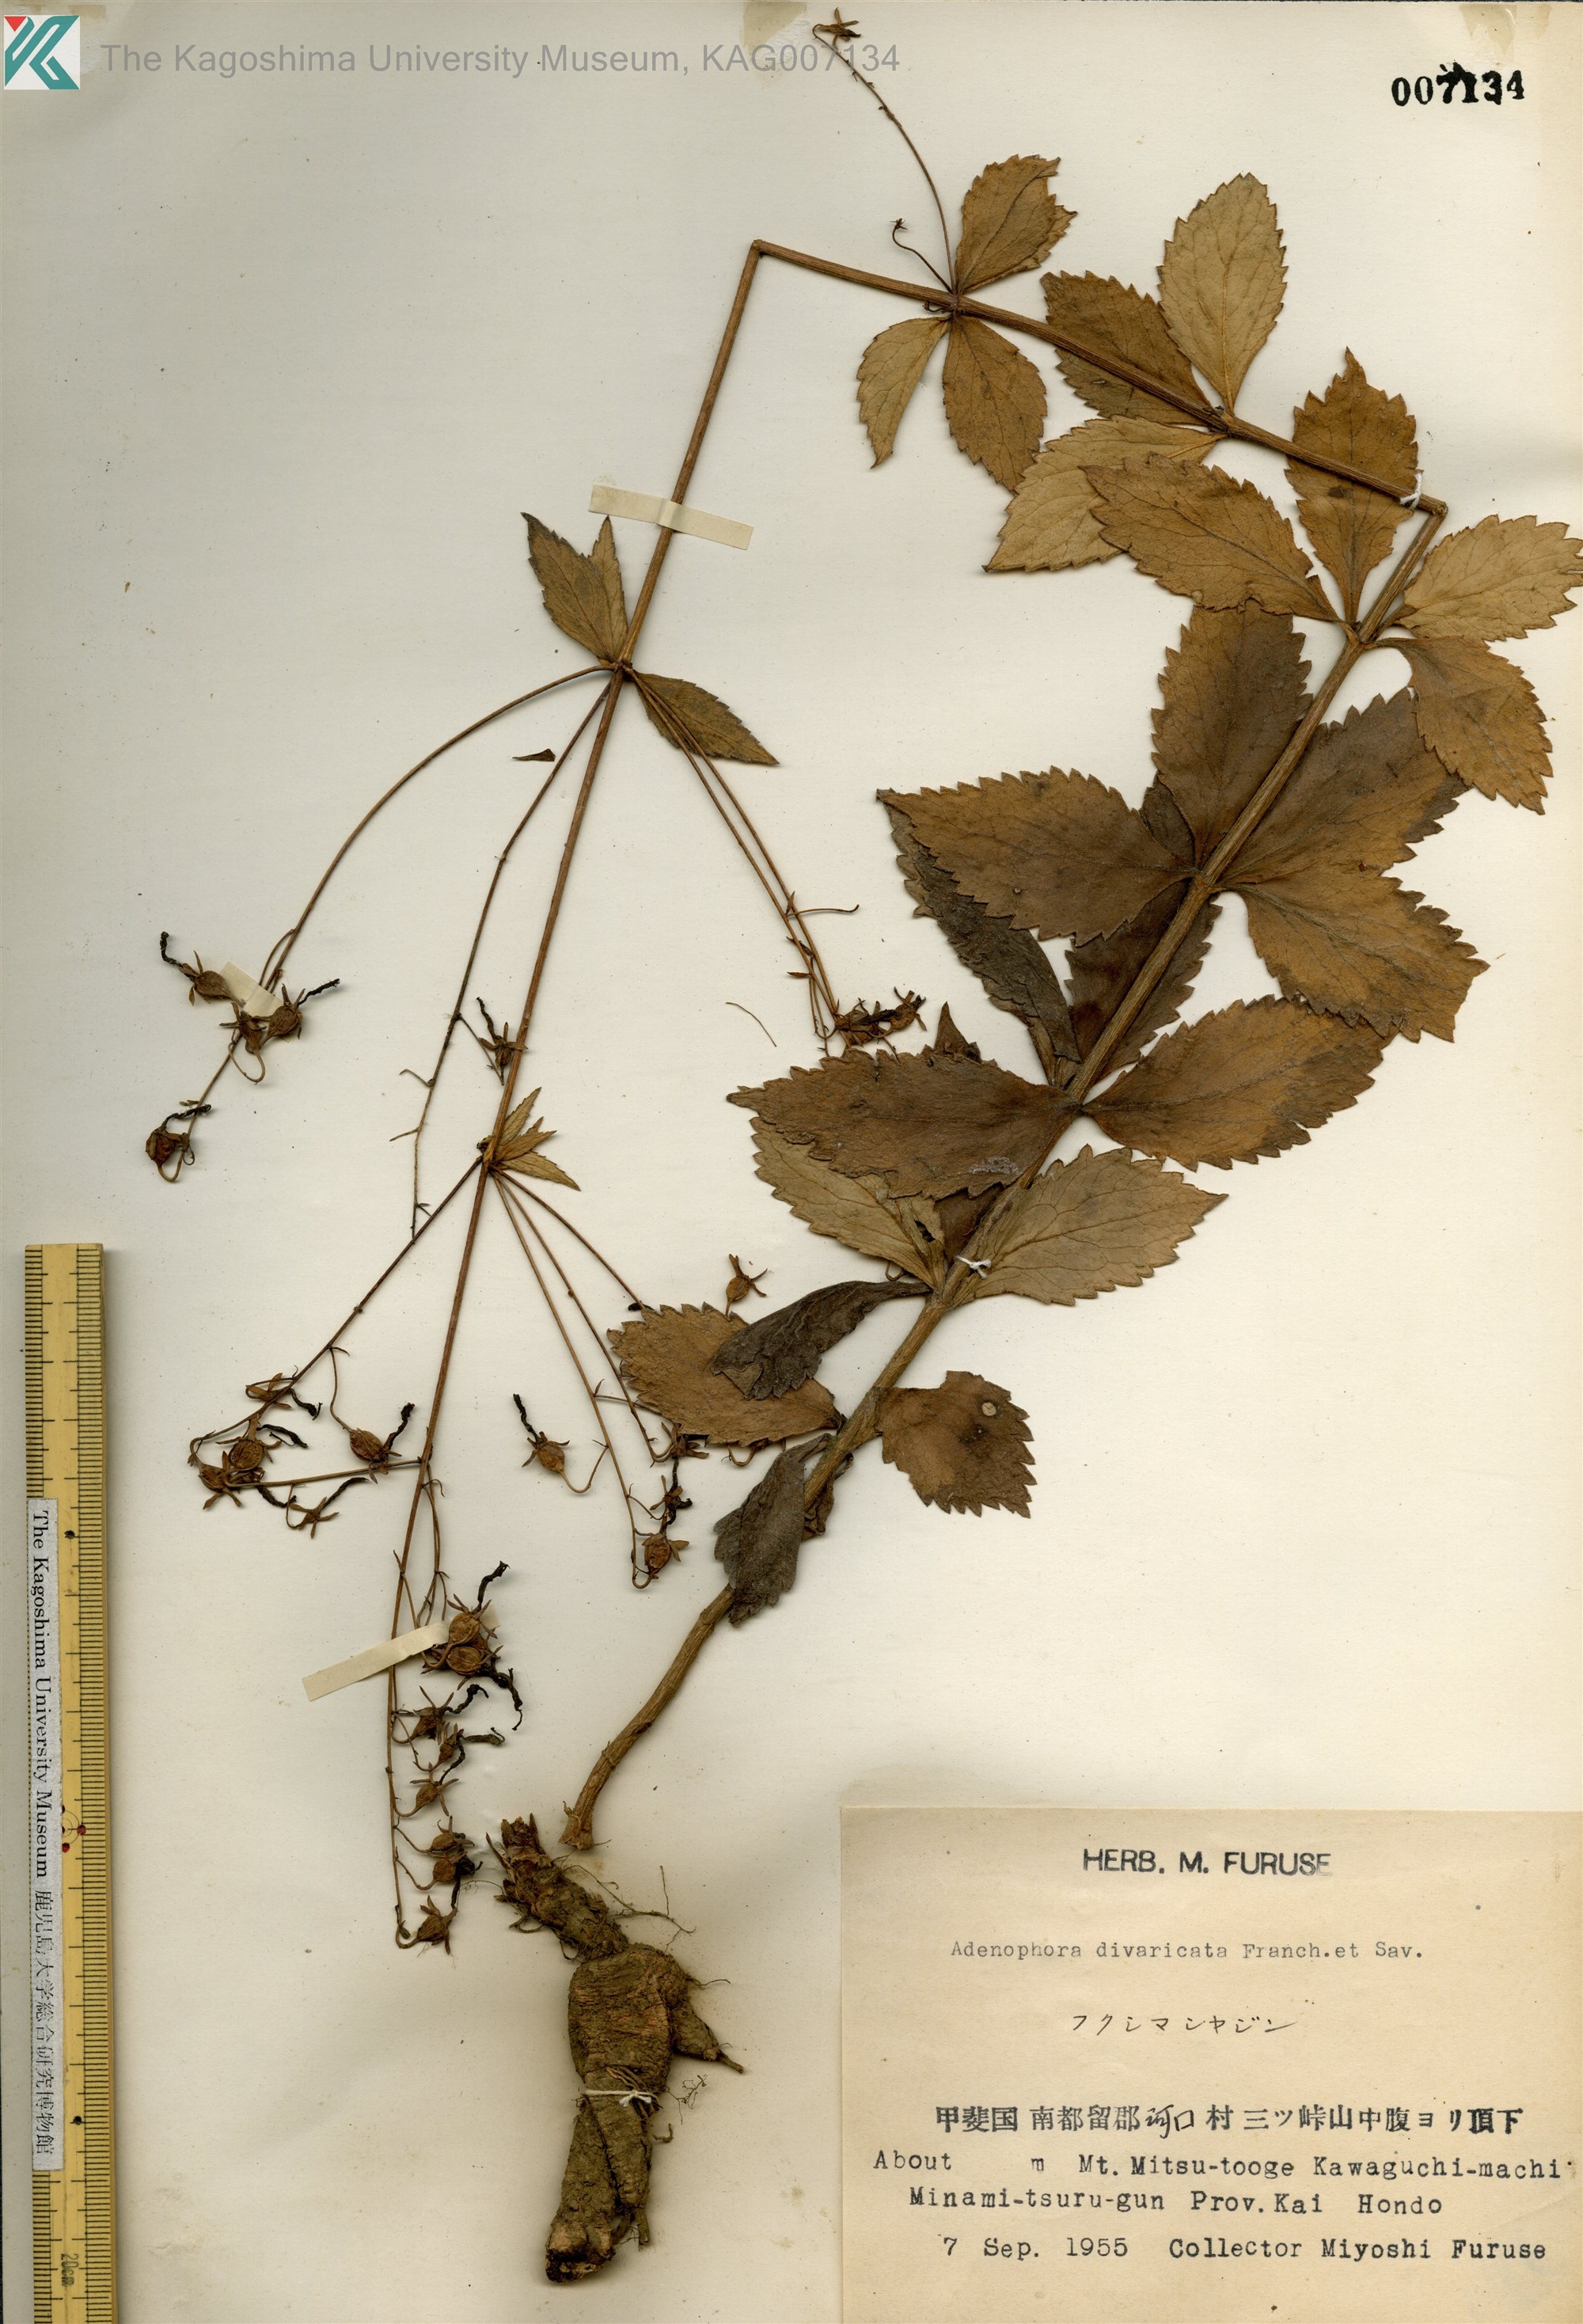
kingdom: Plantae
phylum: Tracheophyta
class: Magnoliopsida
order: Asterales
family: Campanulaceae
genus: Adenophora
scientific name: Adenophora divaricata
